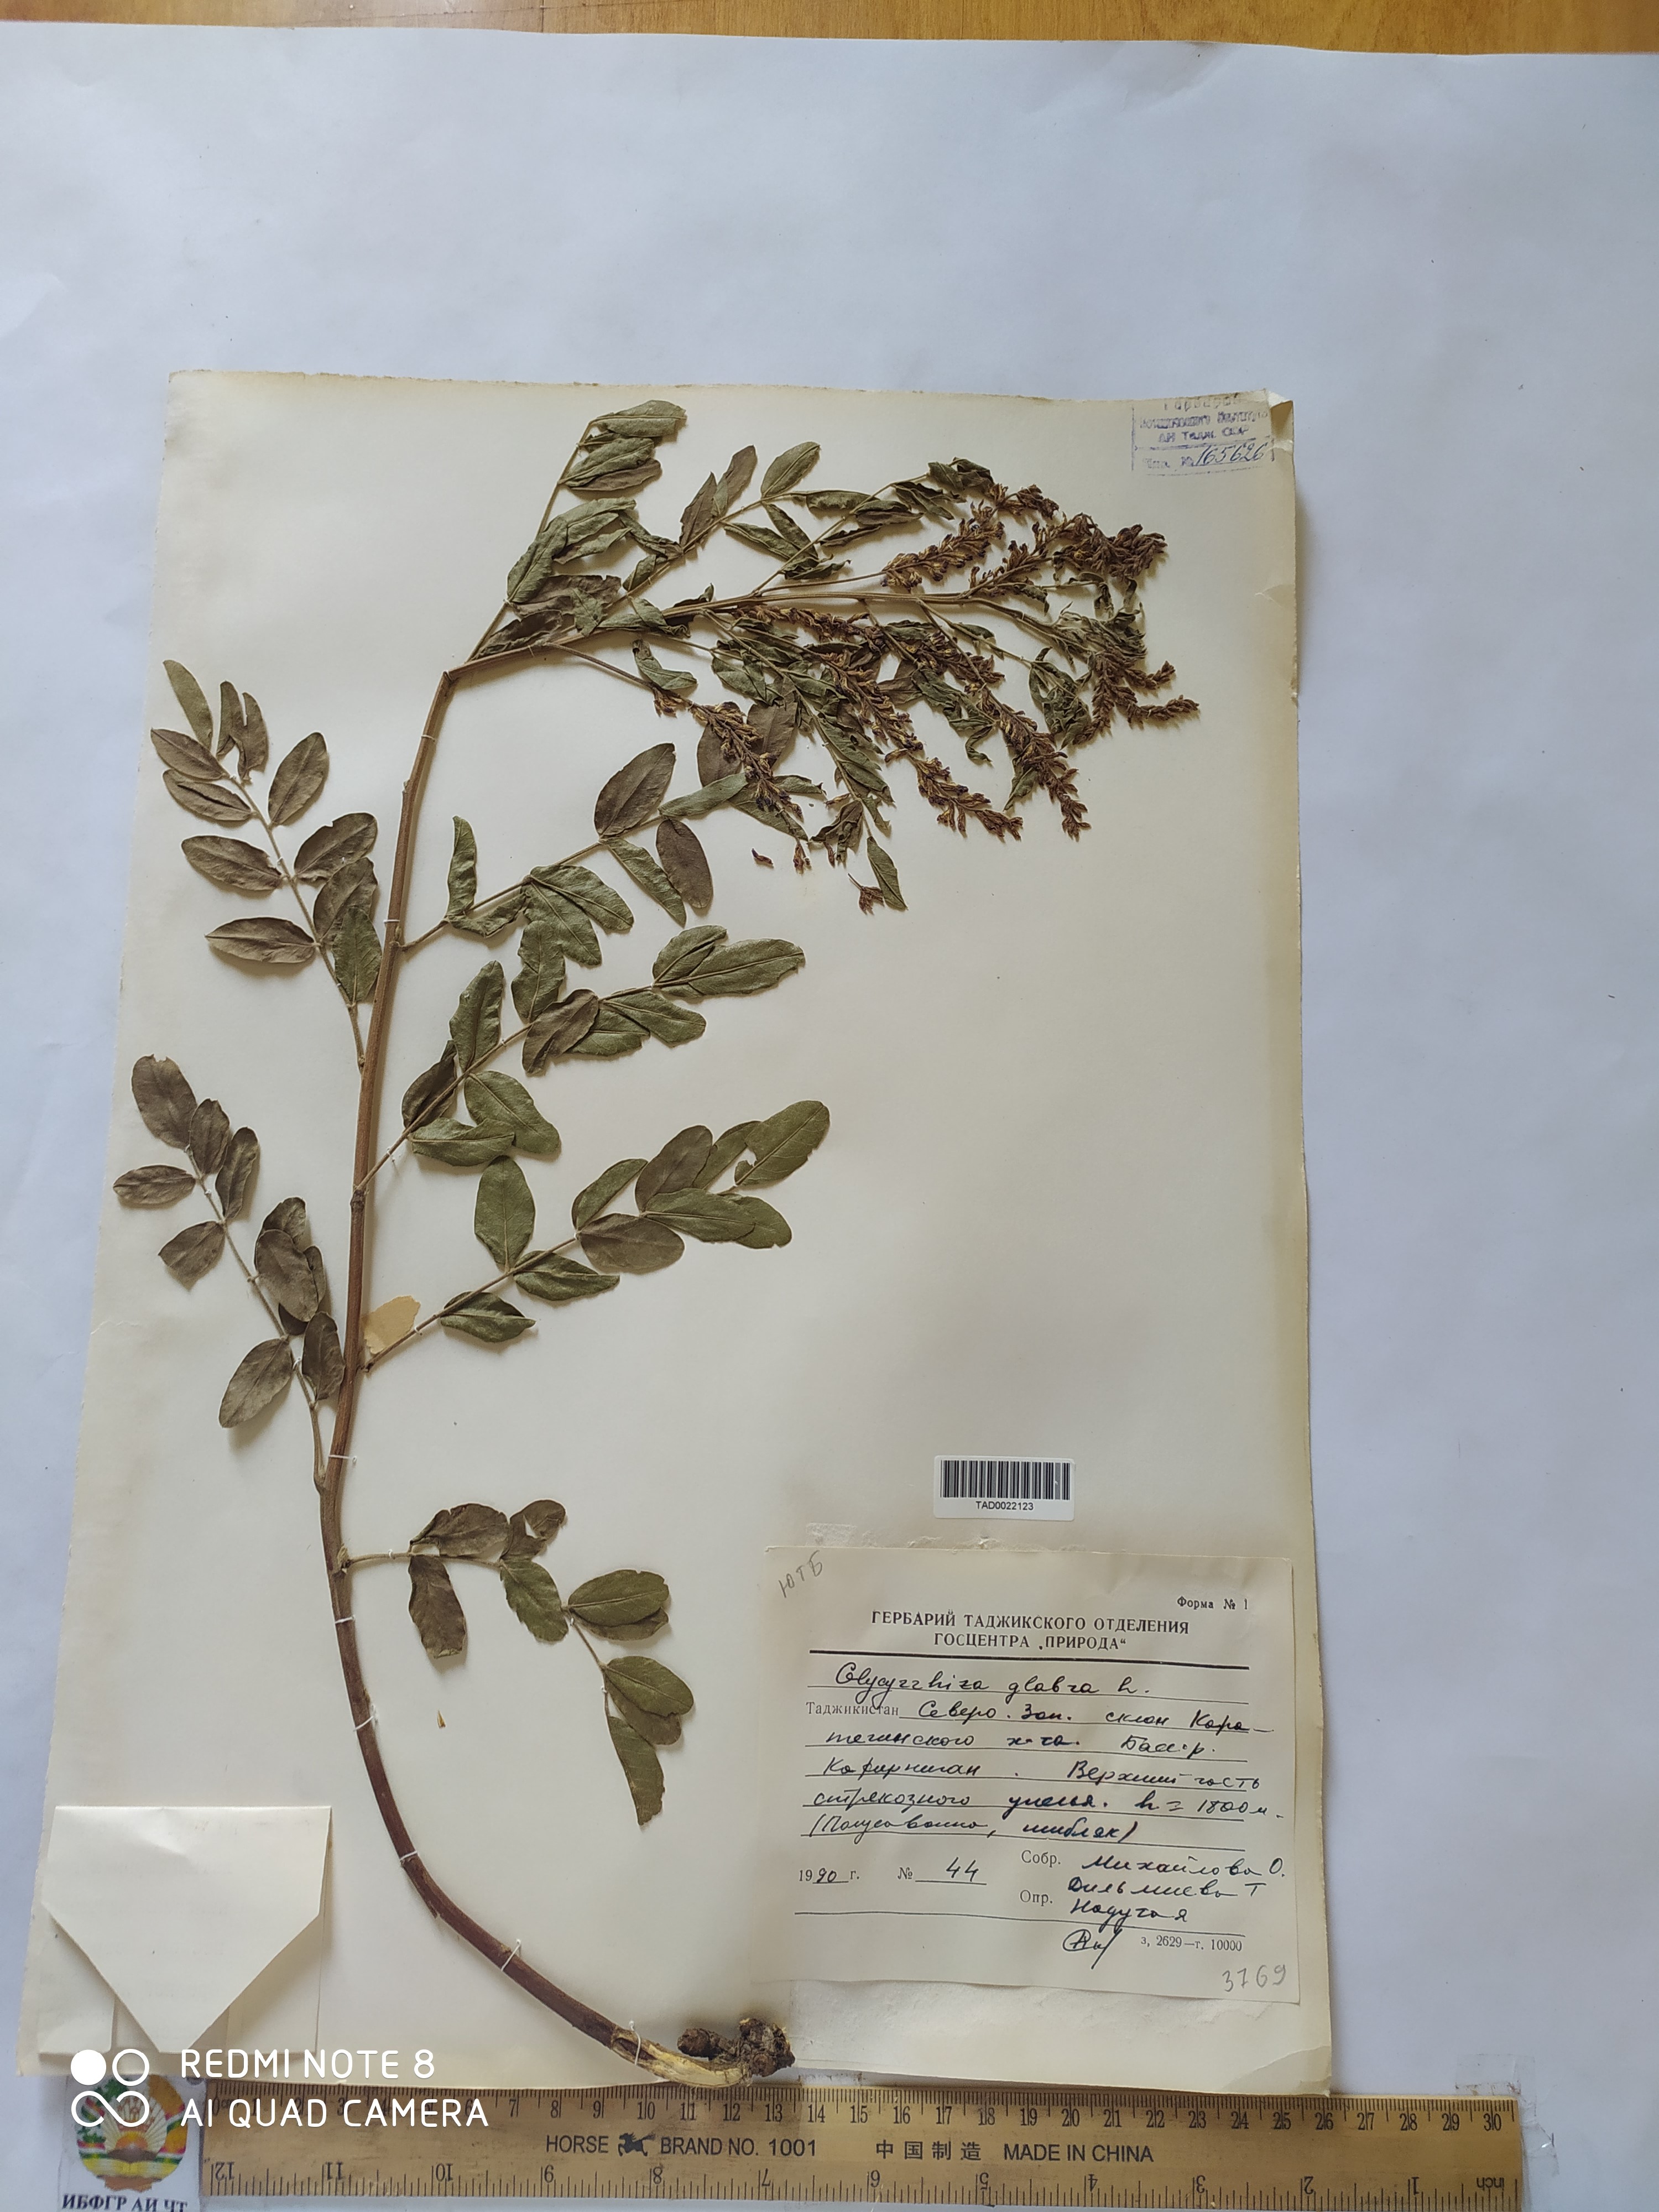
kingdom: Plantae
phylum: Tracheophyta
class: Magnoliopsida
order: Fabales
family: Fabaceae
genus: Glycyrrhiza
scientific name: Glycyrrhiza glabra
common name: Liquorice
